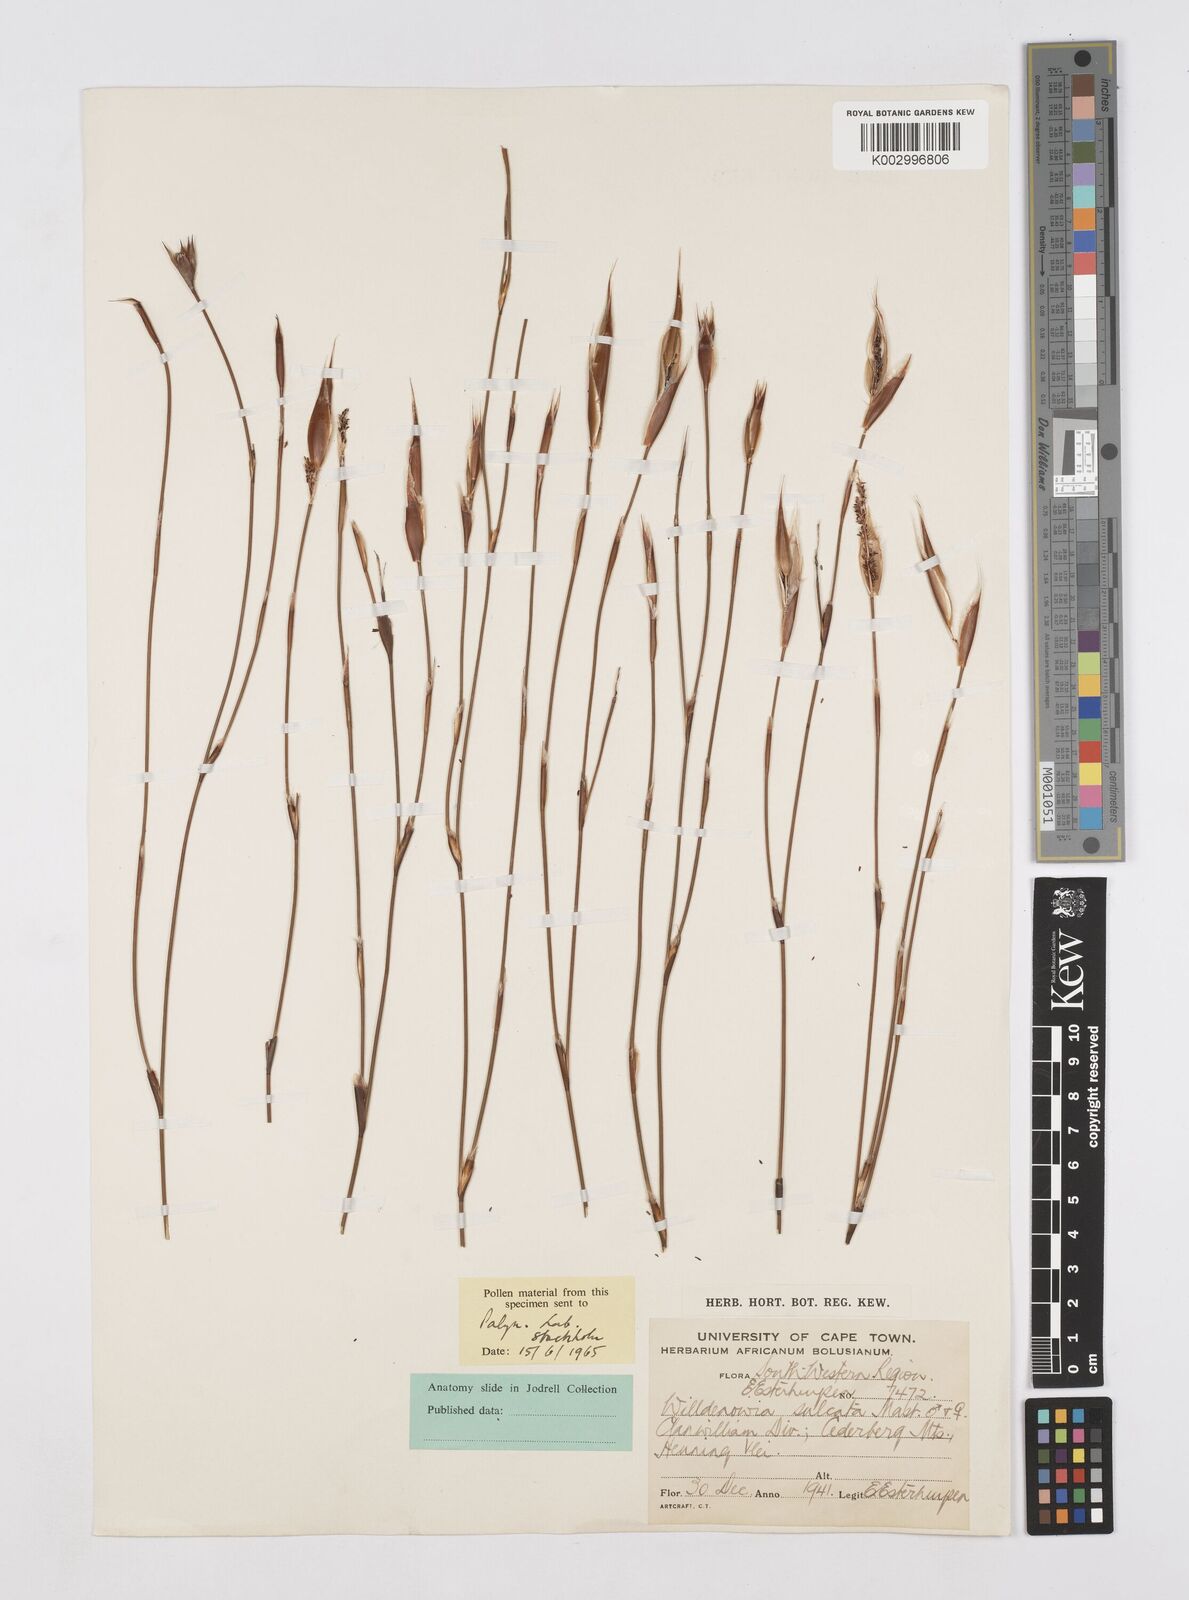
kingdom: Plantae
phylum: Tracheophyta
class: Liliopsida
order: Poales
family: Restionaceae
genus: Willdenowia
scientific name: Willdenowia sulcata
